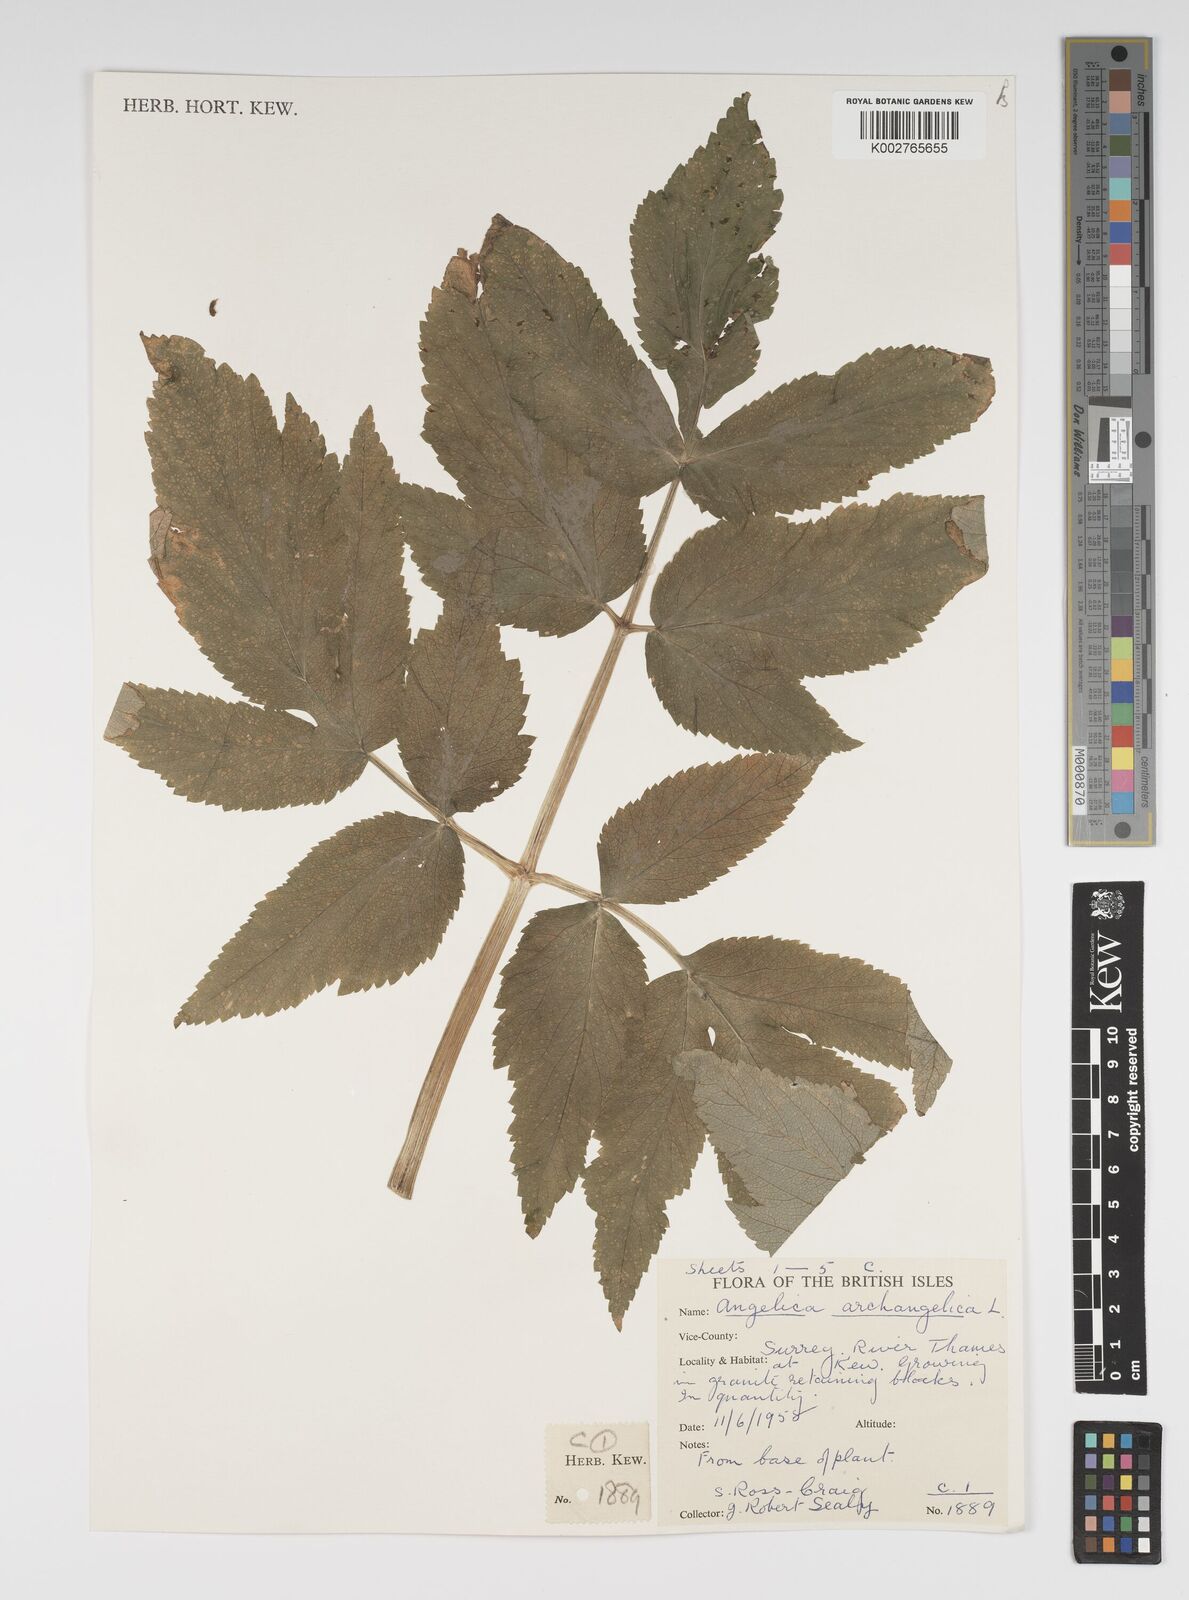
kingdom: Plantae
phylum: Tracheophyta
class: Magnoliopsida
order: Apiales
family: Apiaceae
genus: Angelica
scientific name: Angelica archangelica
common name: Garden angelica
